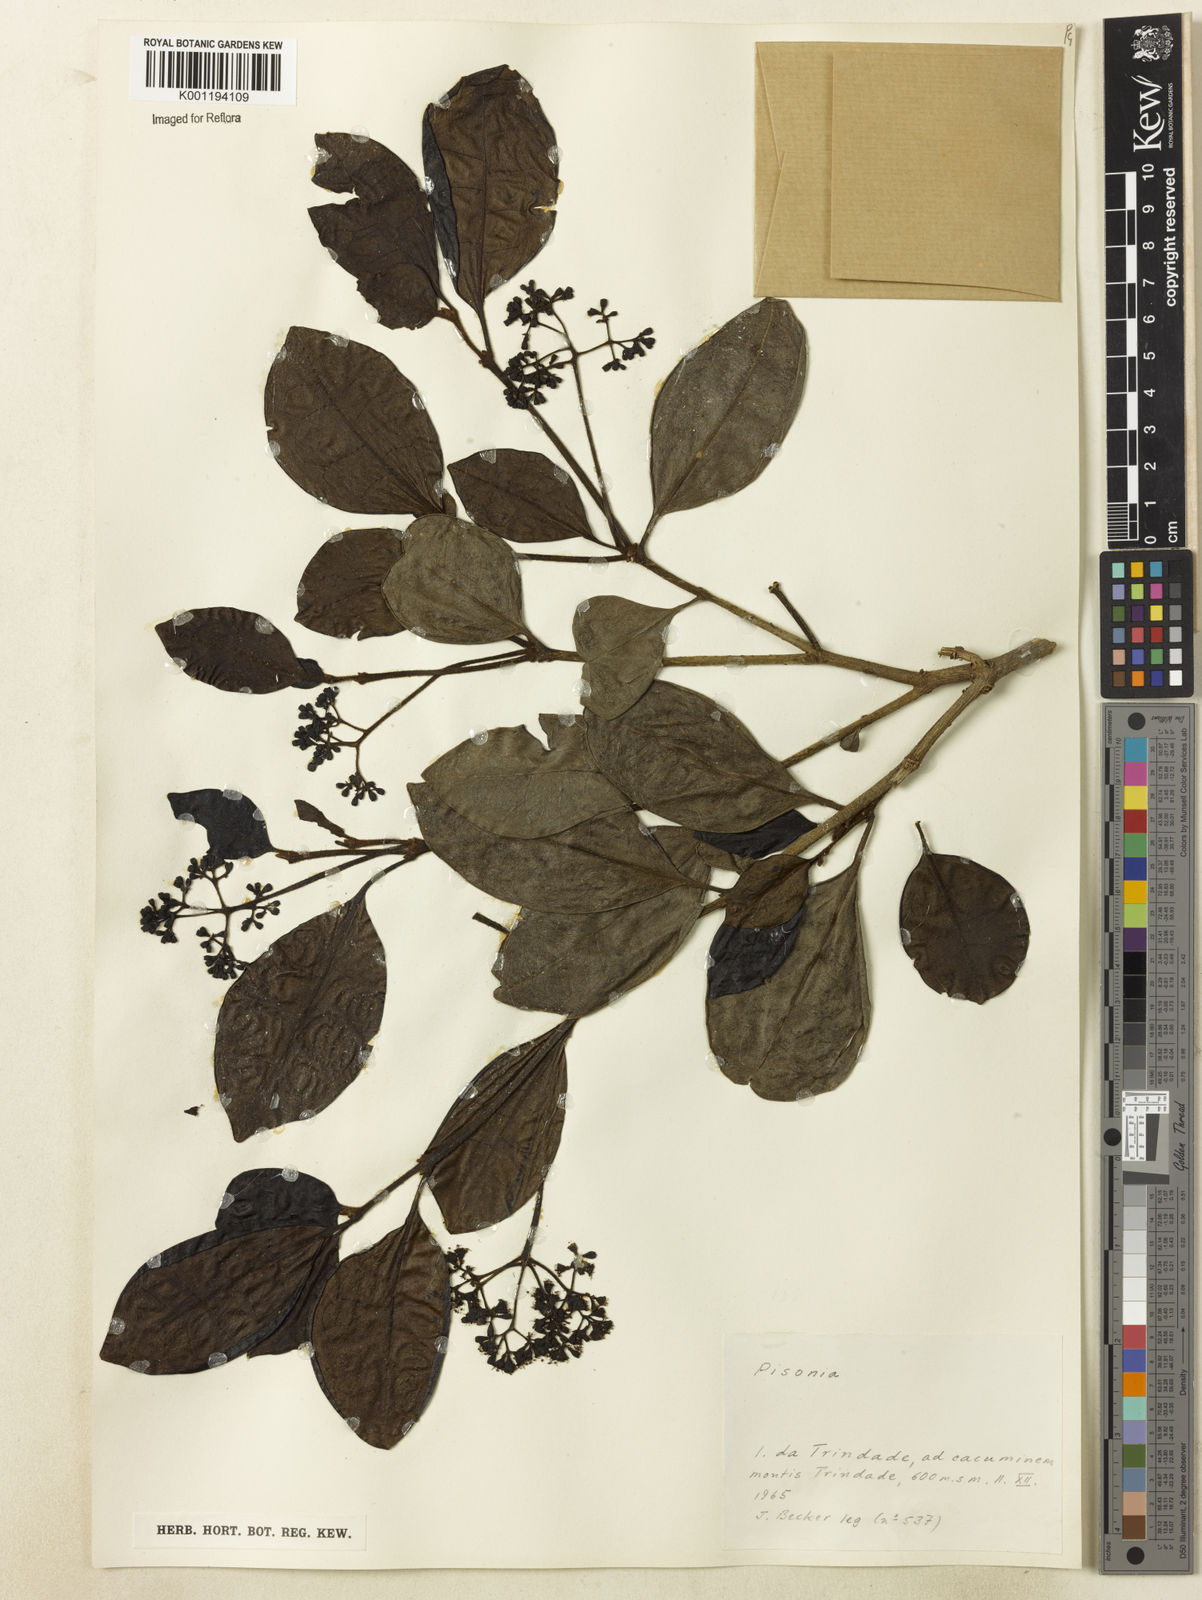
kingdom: Plantae
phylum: Tracheophyta
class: Magnoliopsida
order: Caryophyllales
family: Nyctaginaceae
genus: Guapira
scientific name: Guapira
